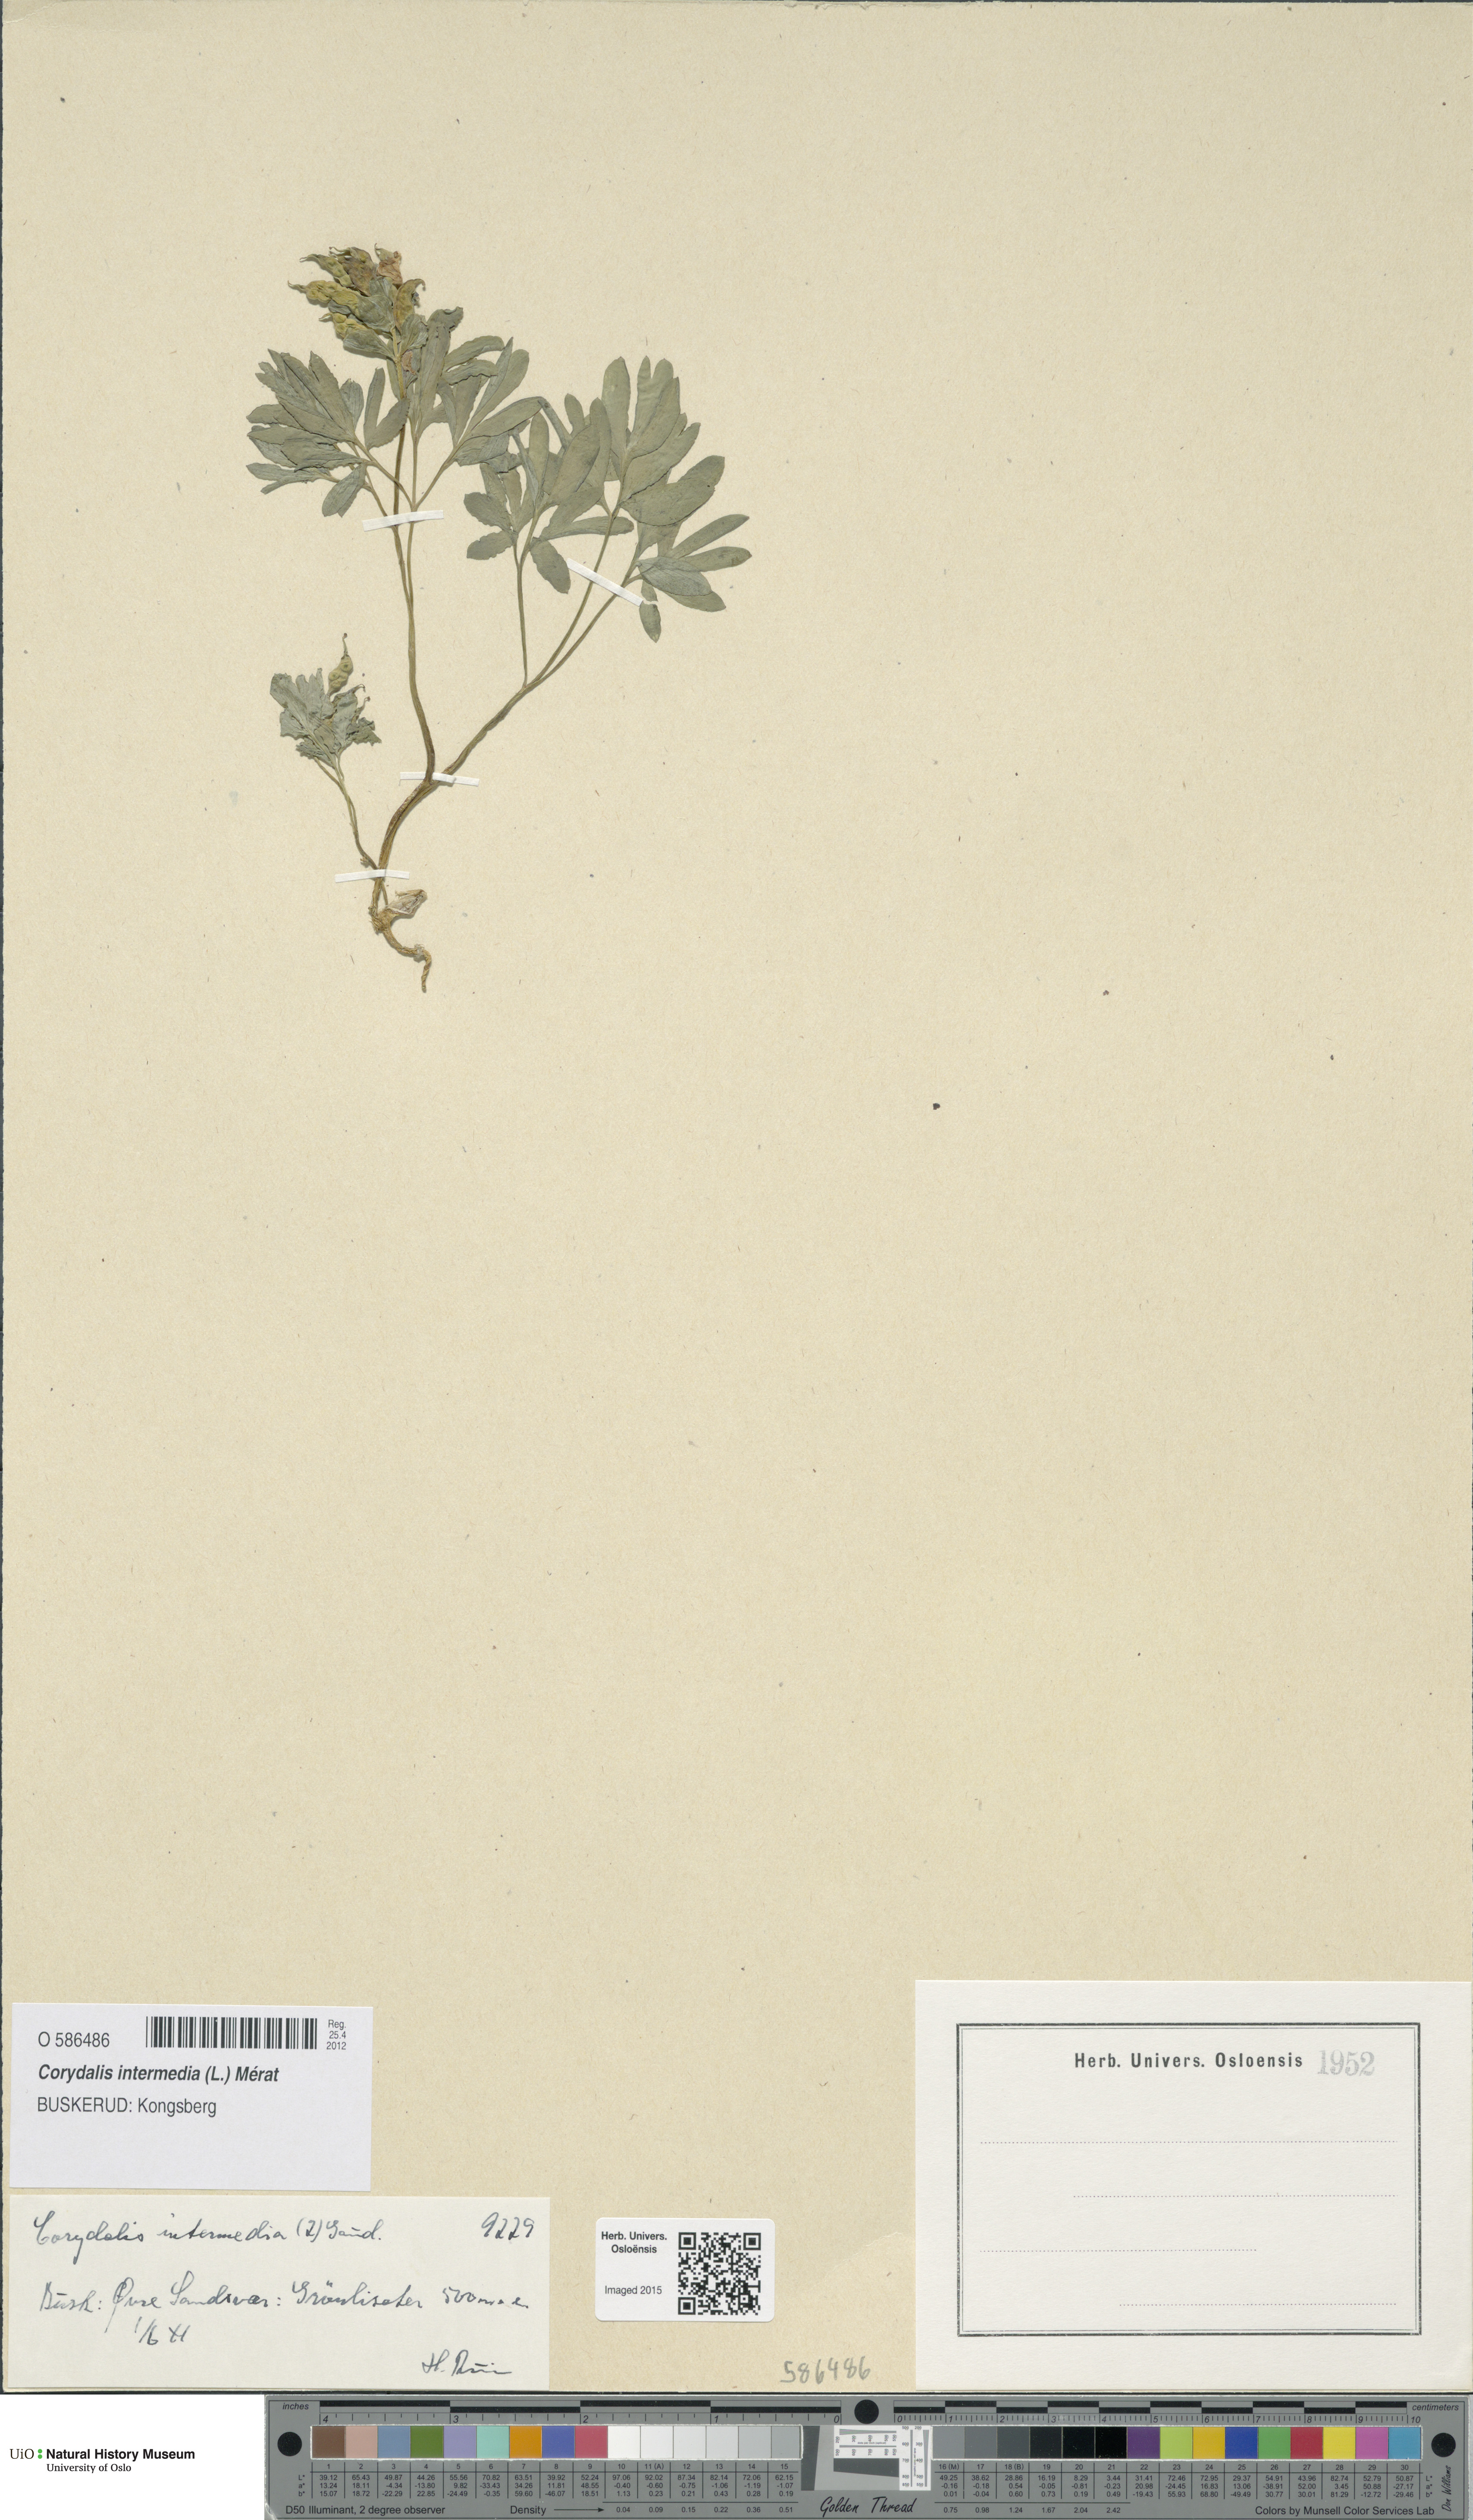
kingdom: Plantae
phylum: Tracheophyta
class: Magnoliopsida
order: Ranunculales
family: Papaveraceae
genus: Corydalis
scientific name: Corydalis intermedia
